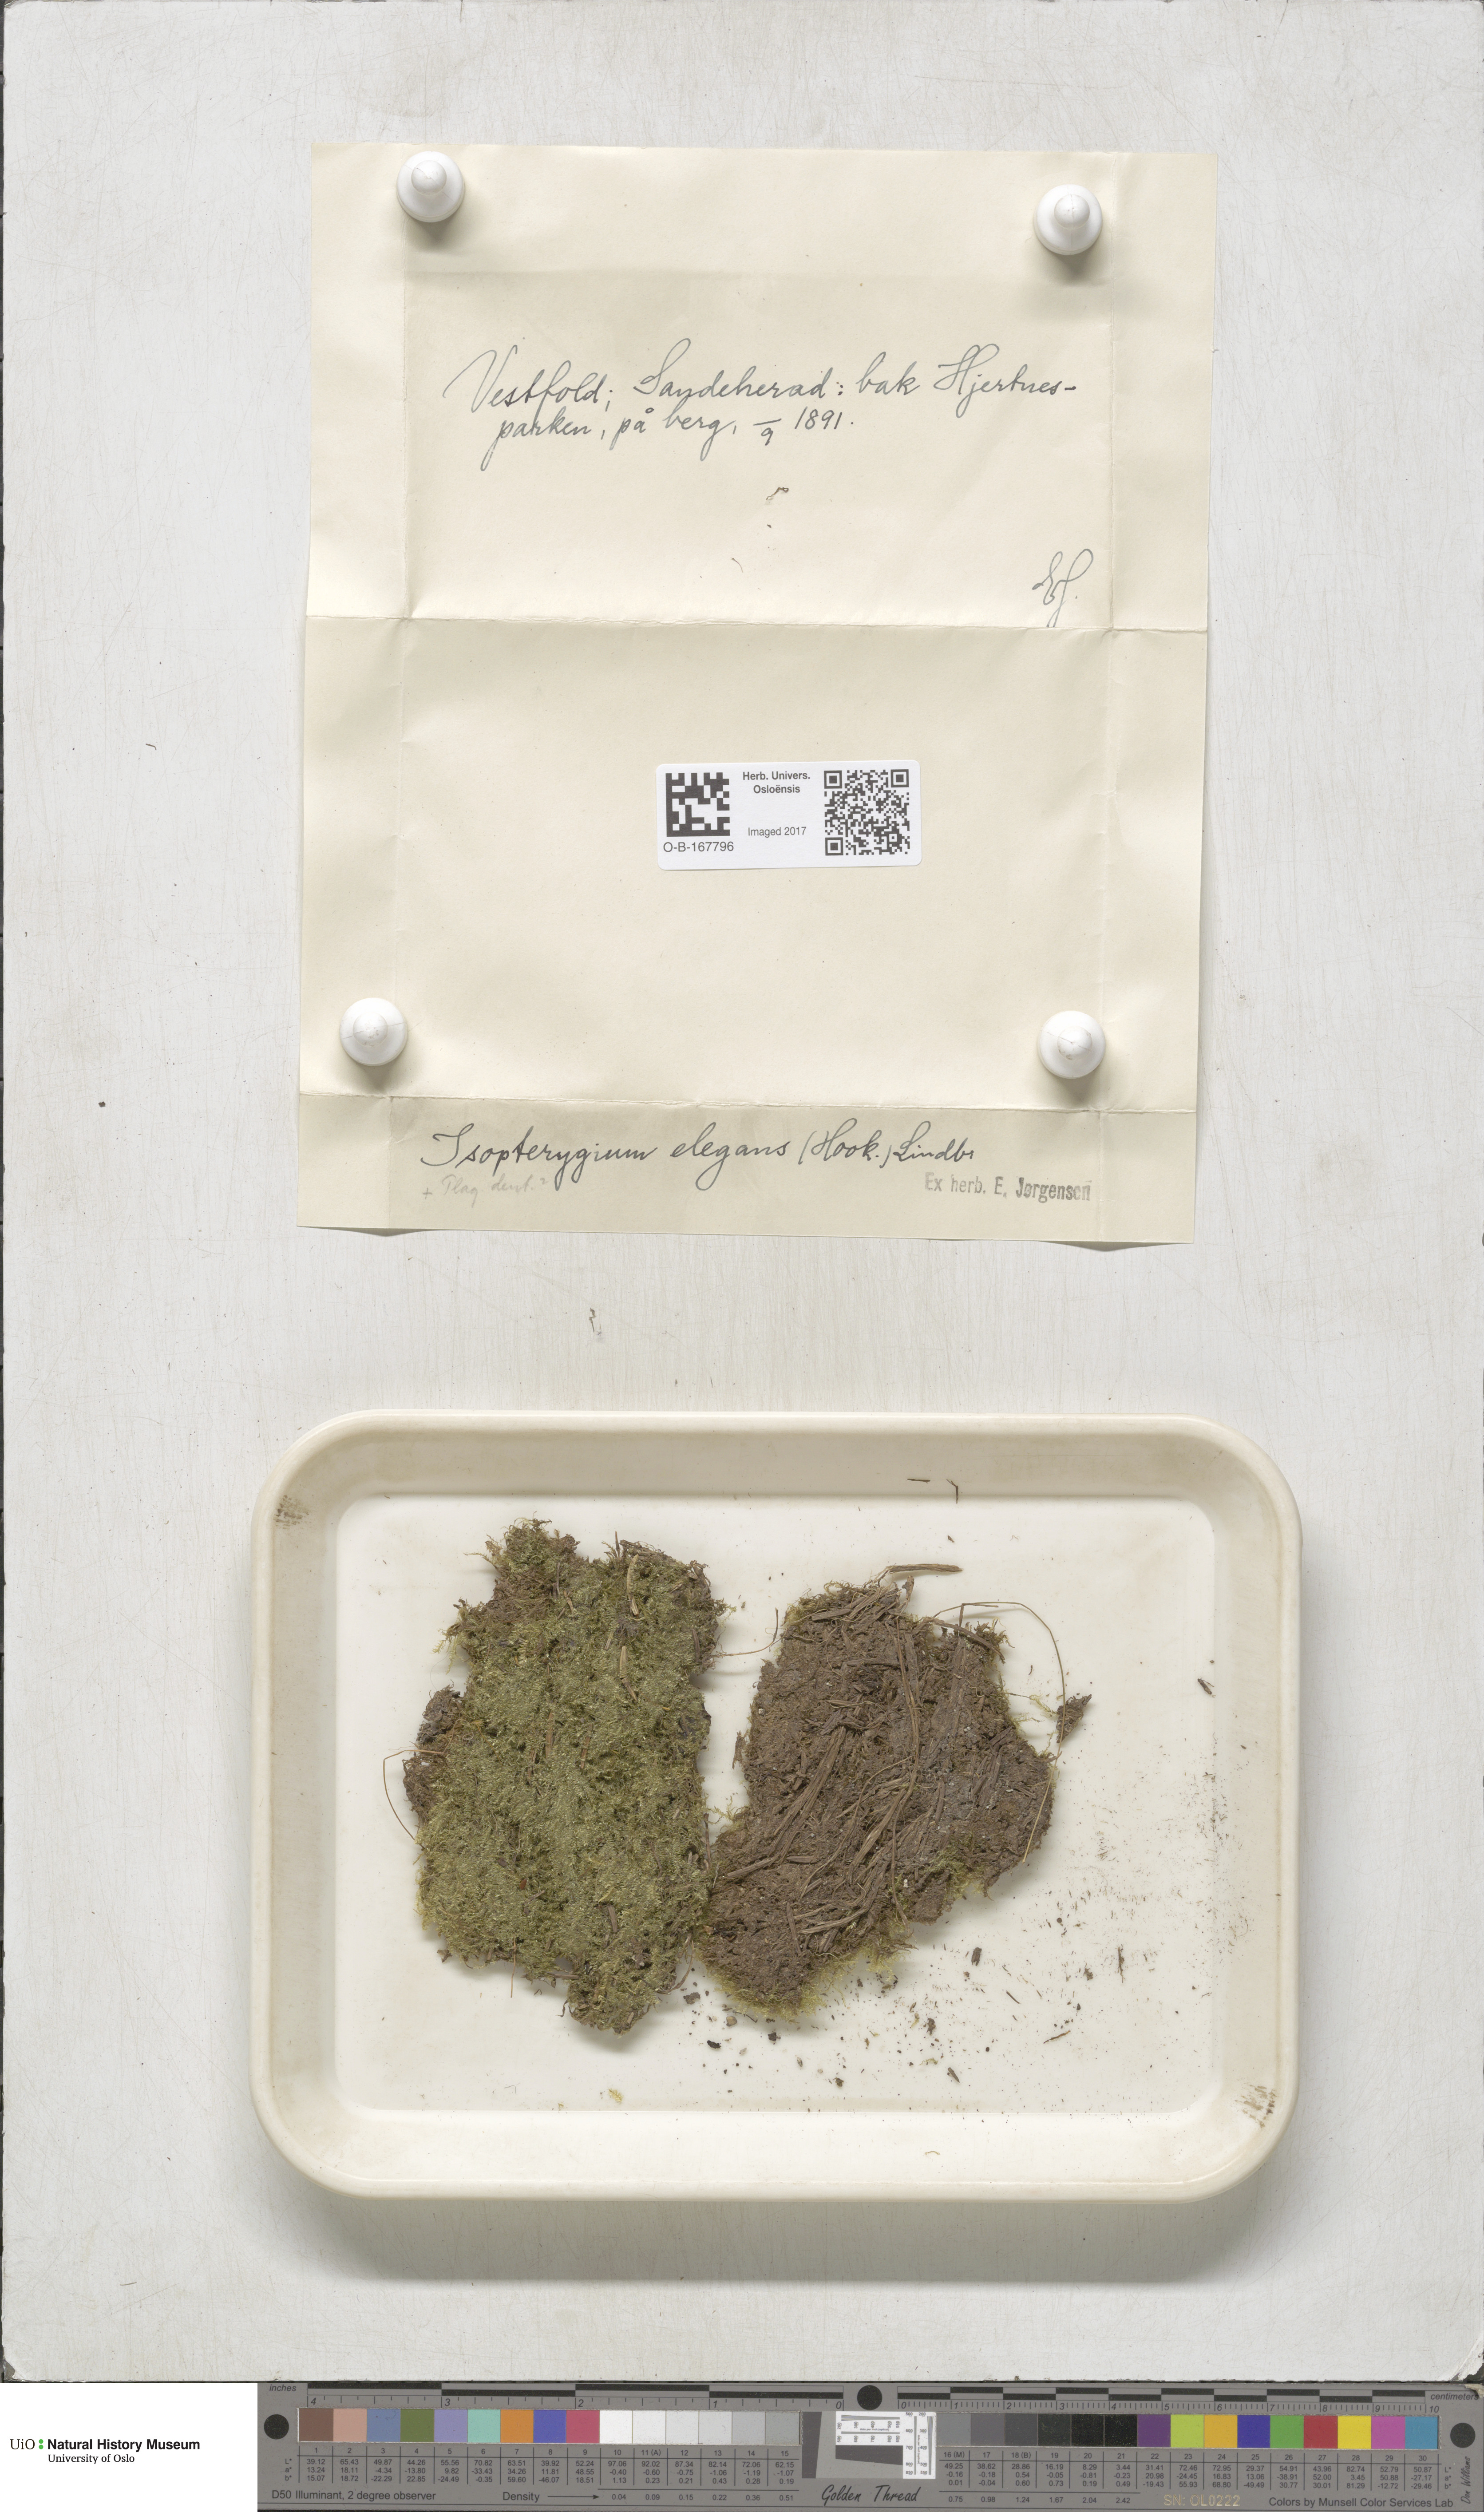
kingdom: Plantae
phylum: Bryophyta
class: Bryopsida
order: Hypnales
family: Plagiotheciaceae
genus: Pseudotaxiphyllum
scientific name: Pseudotaxiphyllum elegans
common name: Elegant silk moss
